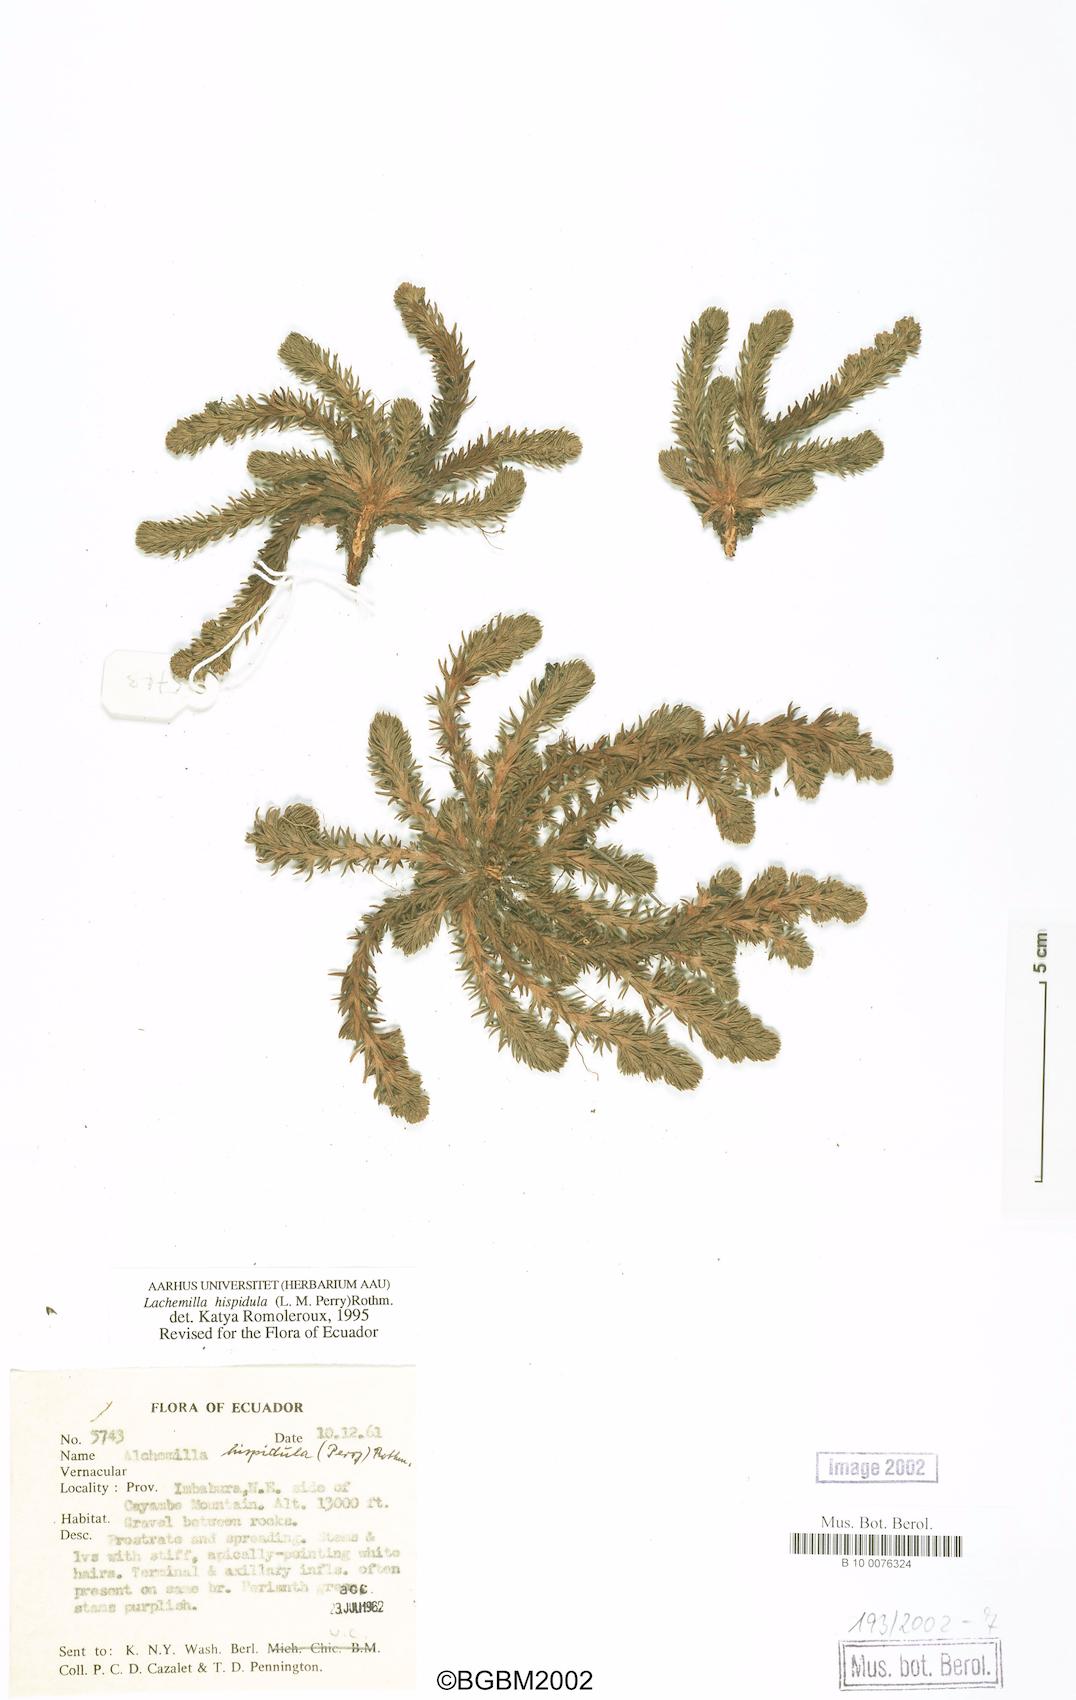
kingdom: Plantae
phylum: Tracheophyta
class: Magnoliopsida
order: Rosales
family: Rosaceae
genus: Lachemilla
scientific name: Lachemilla hispidula
